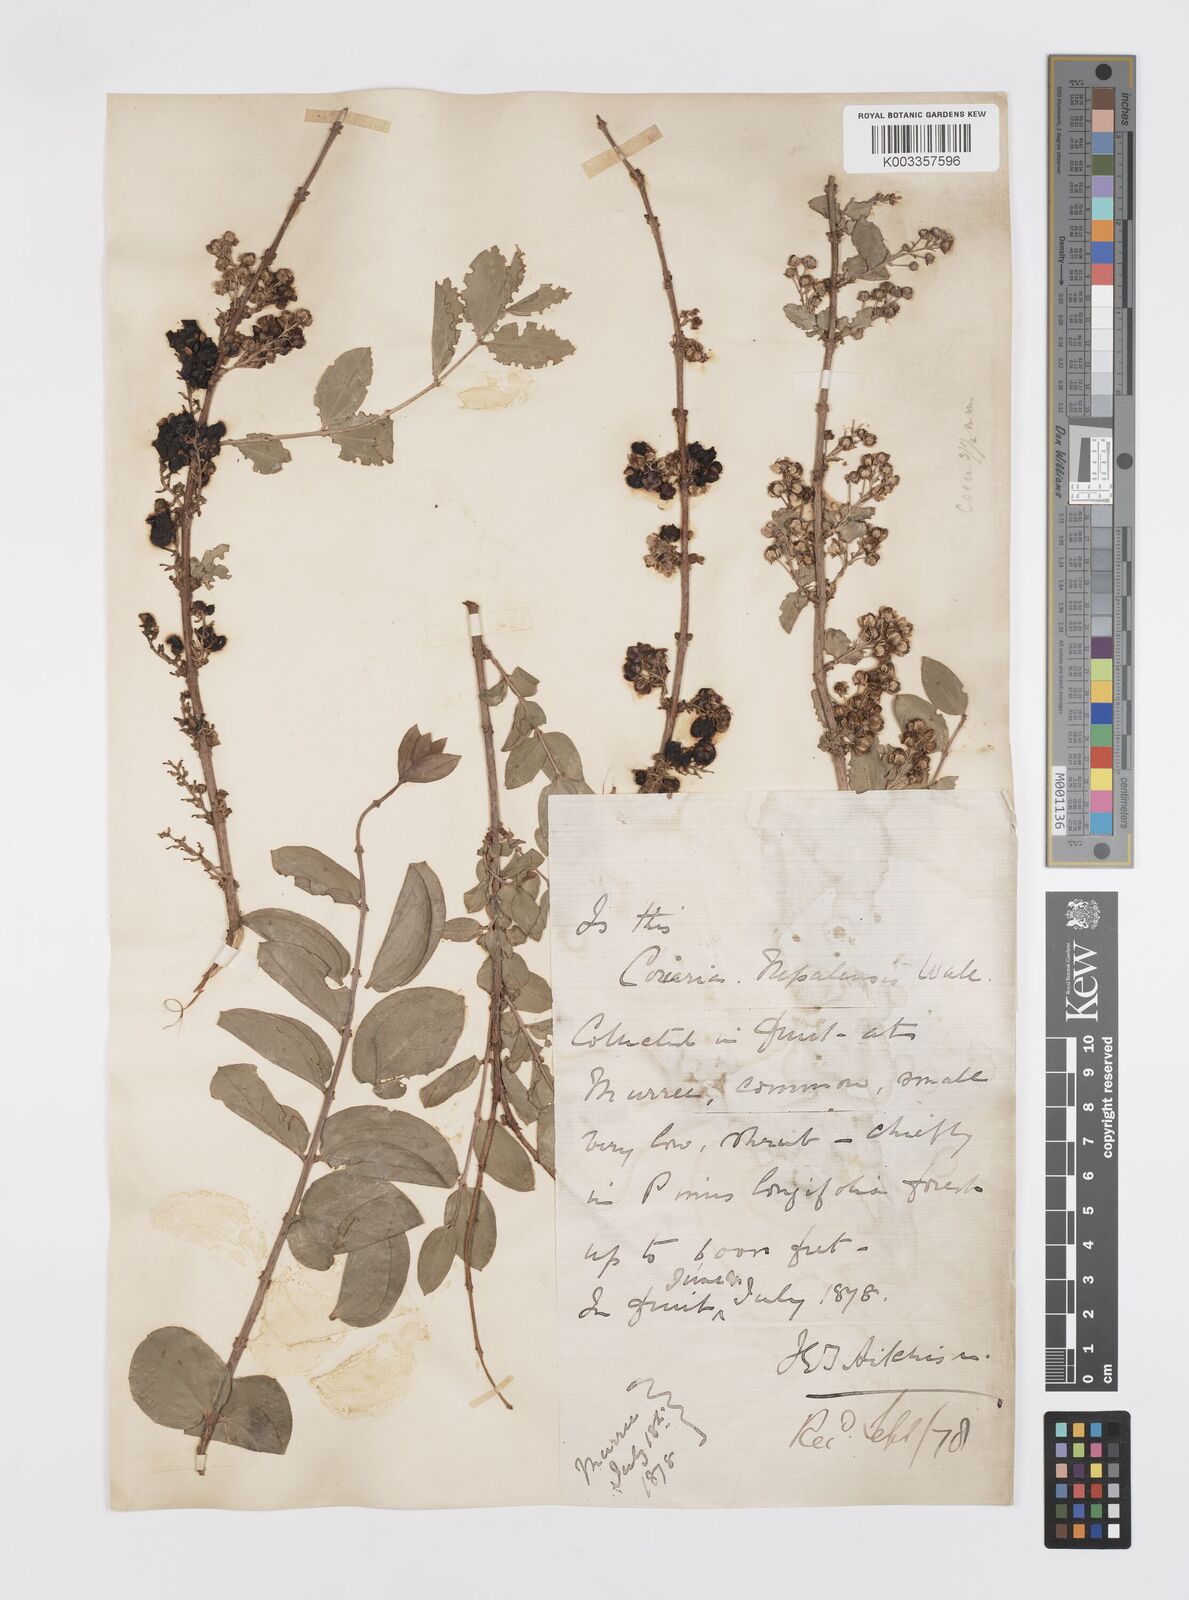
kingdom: Plantae
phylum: Tracheophyta
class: Magnoliopsida
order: Cucurbitales
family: Coriariaceae
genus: Coriaria
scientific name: Coriaria napalensis
